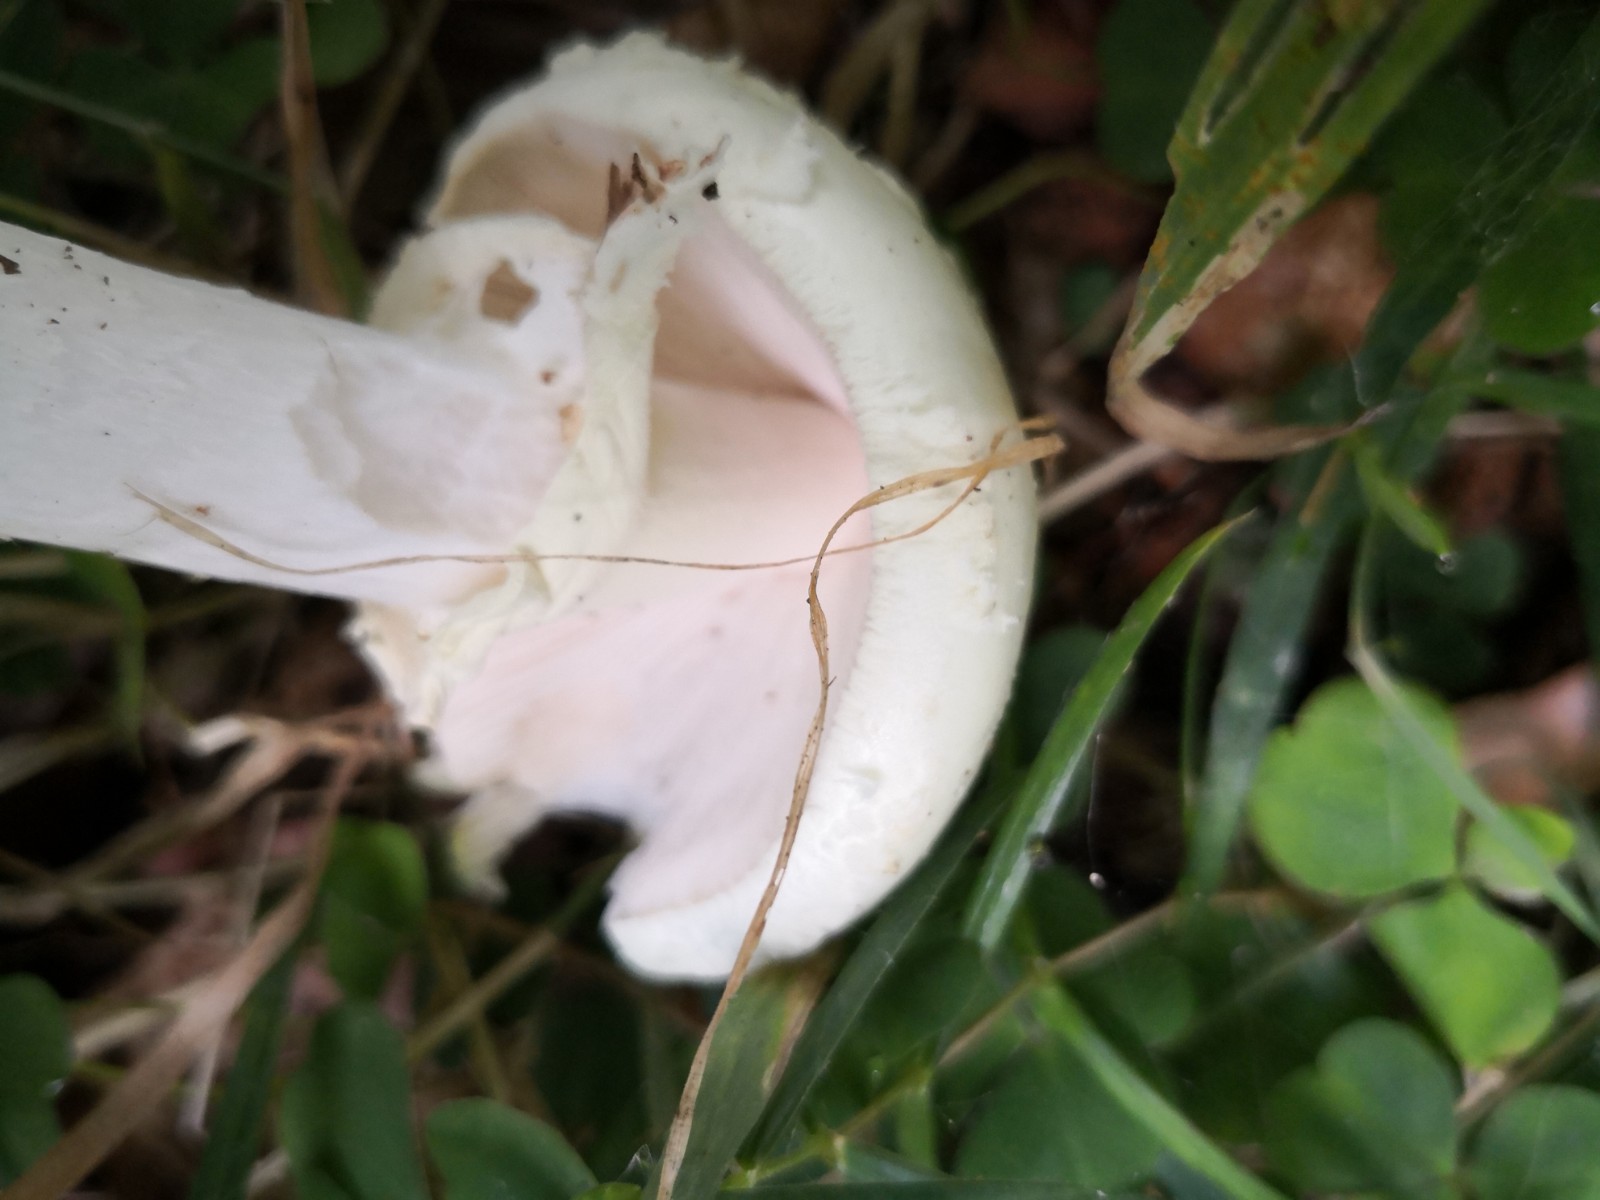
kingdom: Fungi
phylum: Basidiomycota
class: Agaricomycetes
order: Agaricales
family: Amanitaceae
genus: Amanita
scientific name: Amanita citrina
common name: kugleknoldet fluesvamp
